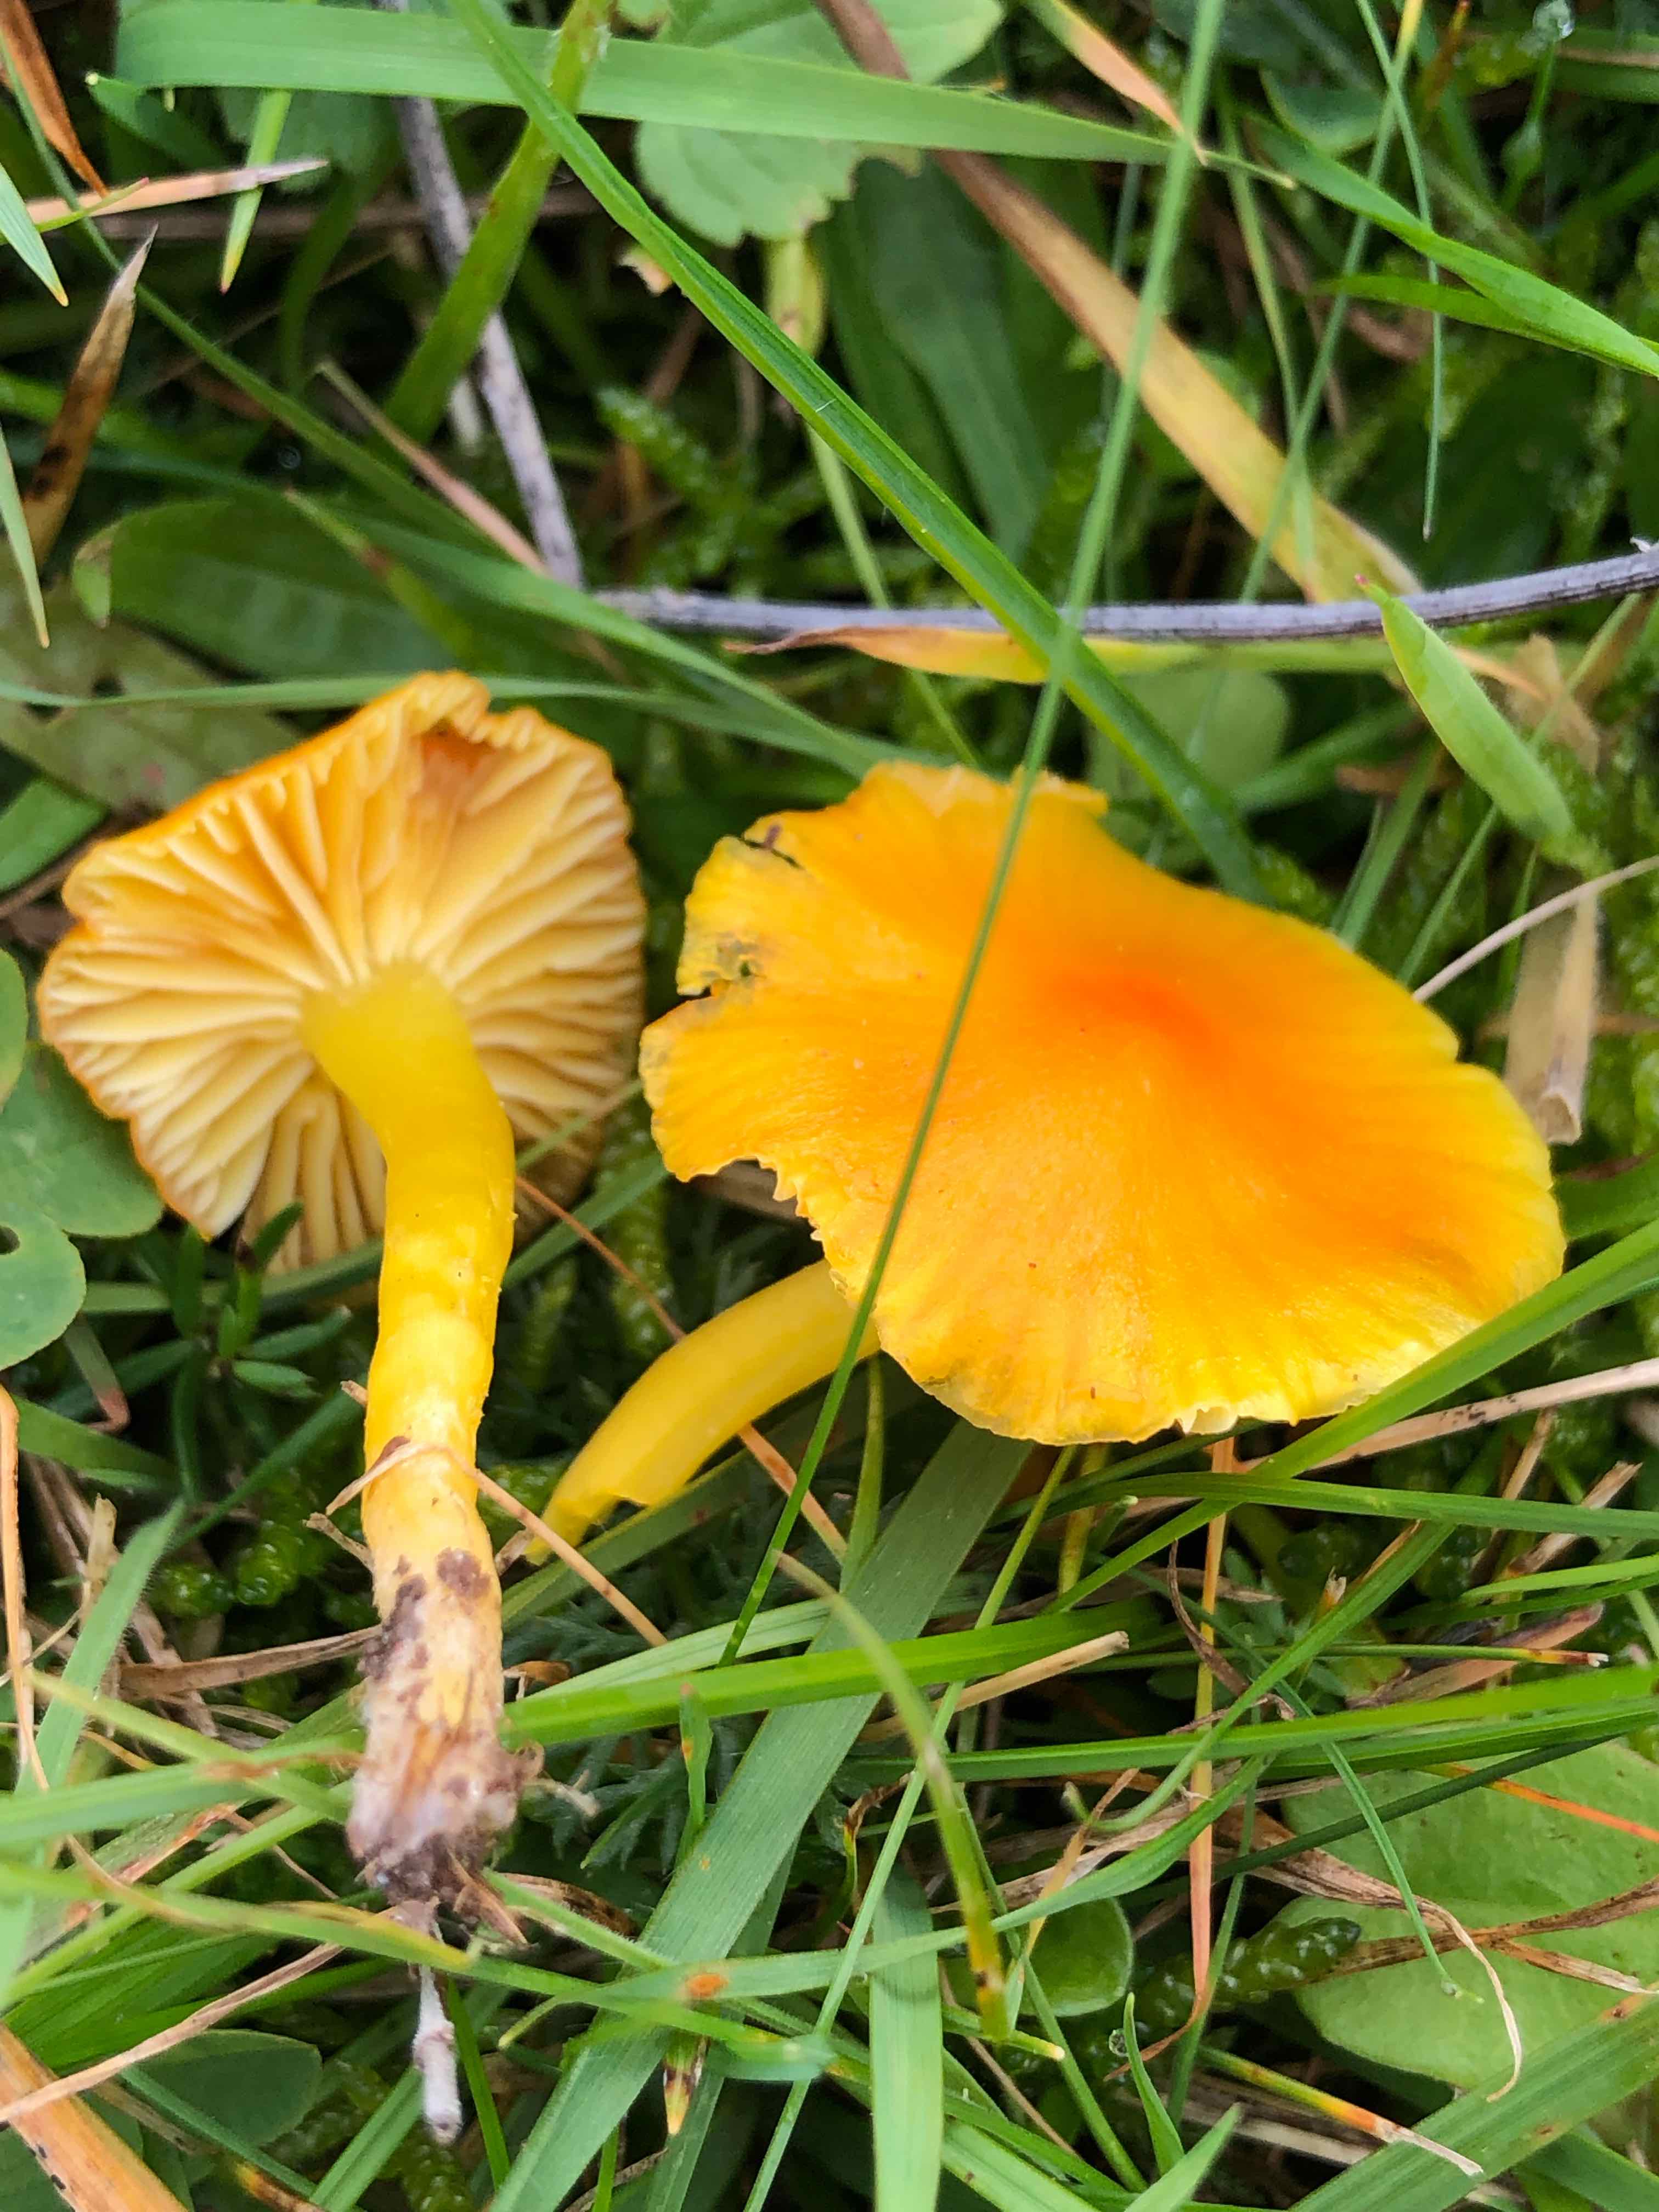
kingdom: Fungi
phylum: Basidiomycota
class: Agaricomycetes
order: Agaricales
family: Hygrophoraceae
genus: Hygrocybe
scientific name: Hygrocybe ceracea
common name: voksgul vokshat
